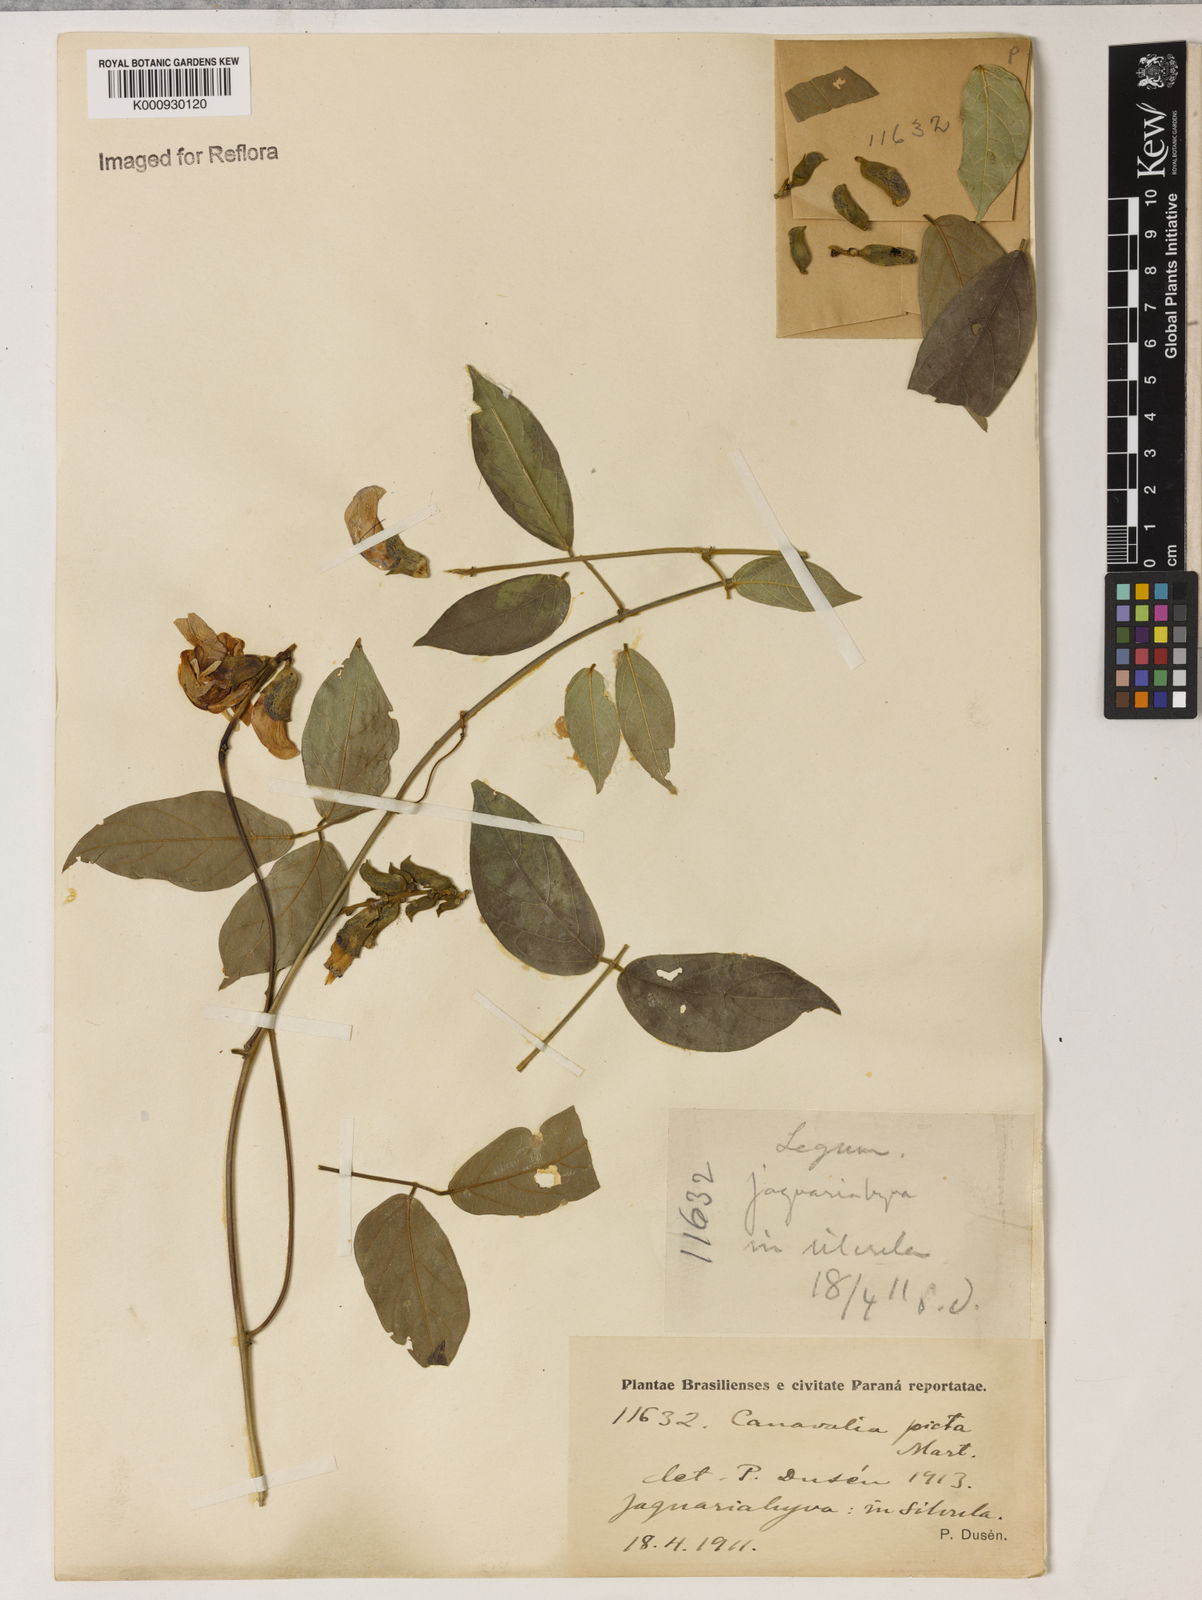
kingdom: Plantae
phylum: Tracheophyta
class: Magnoliopsida
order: Fabales
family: Fabaceae
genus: Canavalia
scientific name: Canavalia picta
